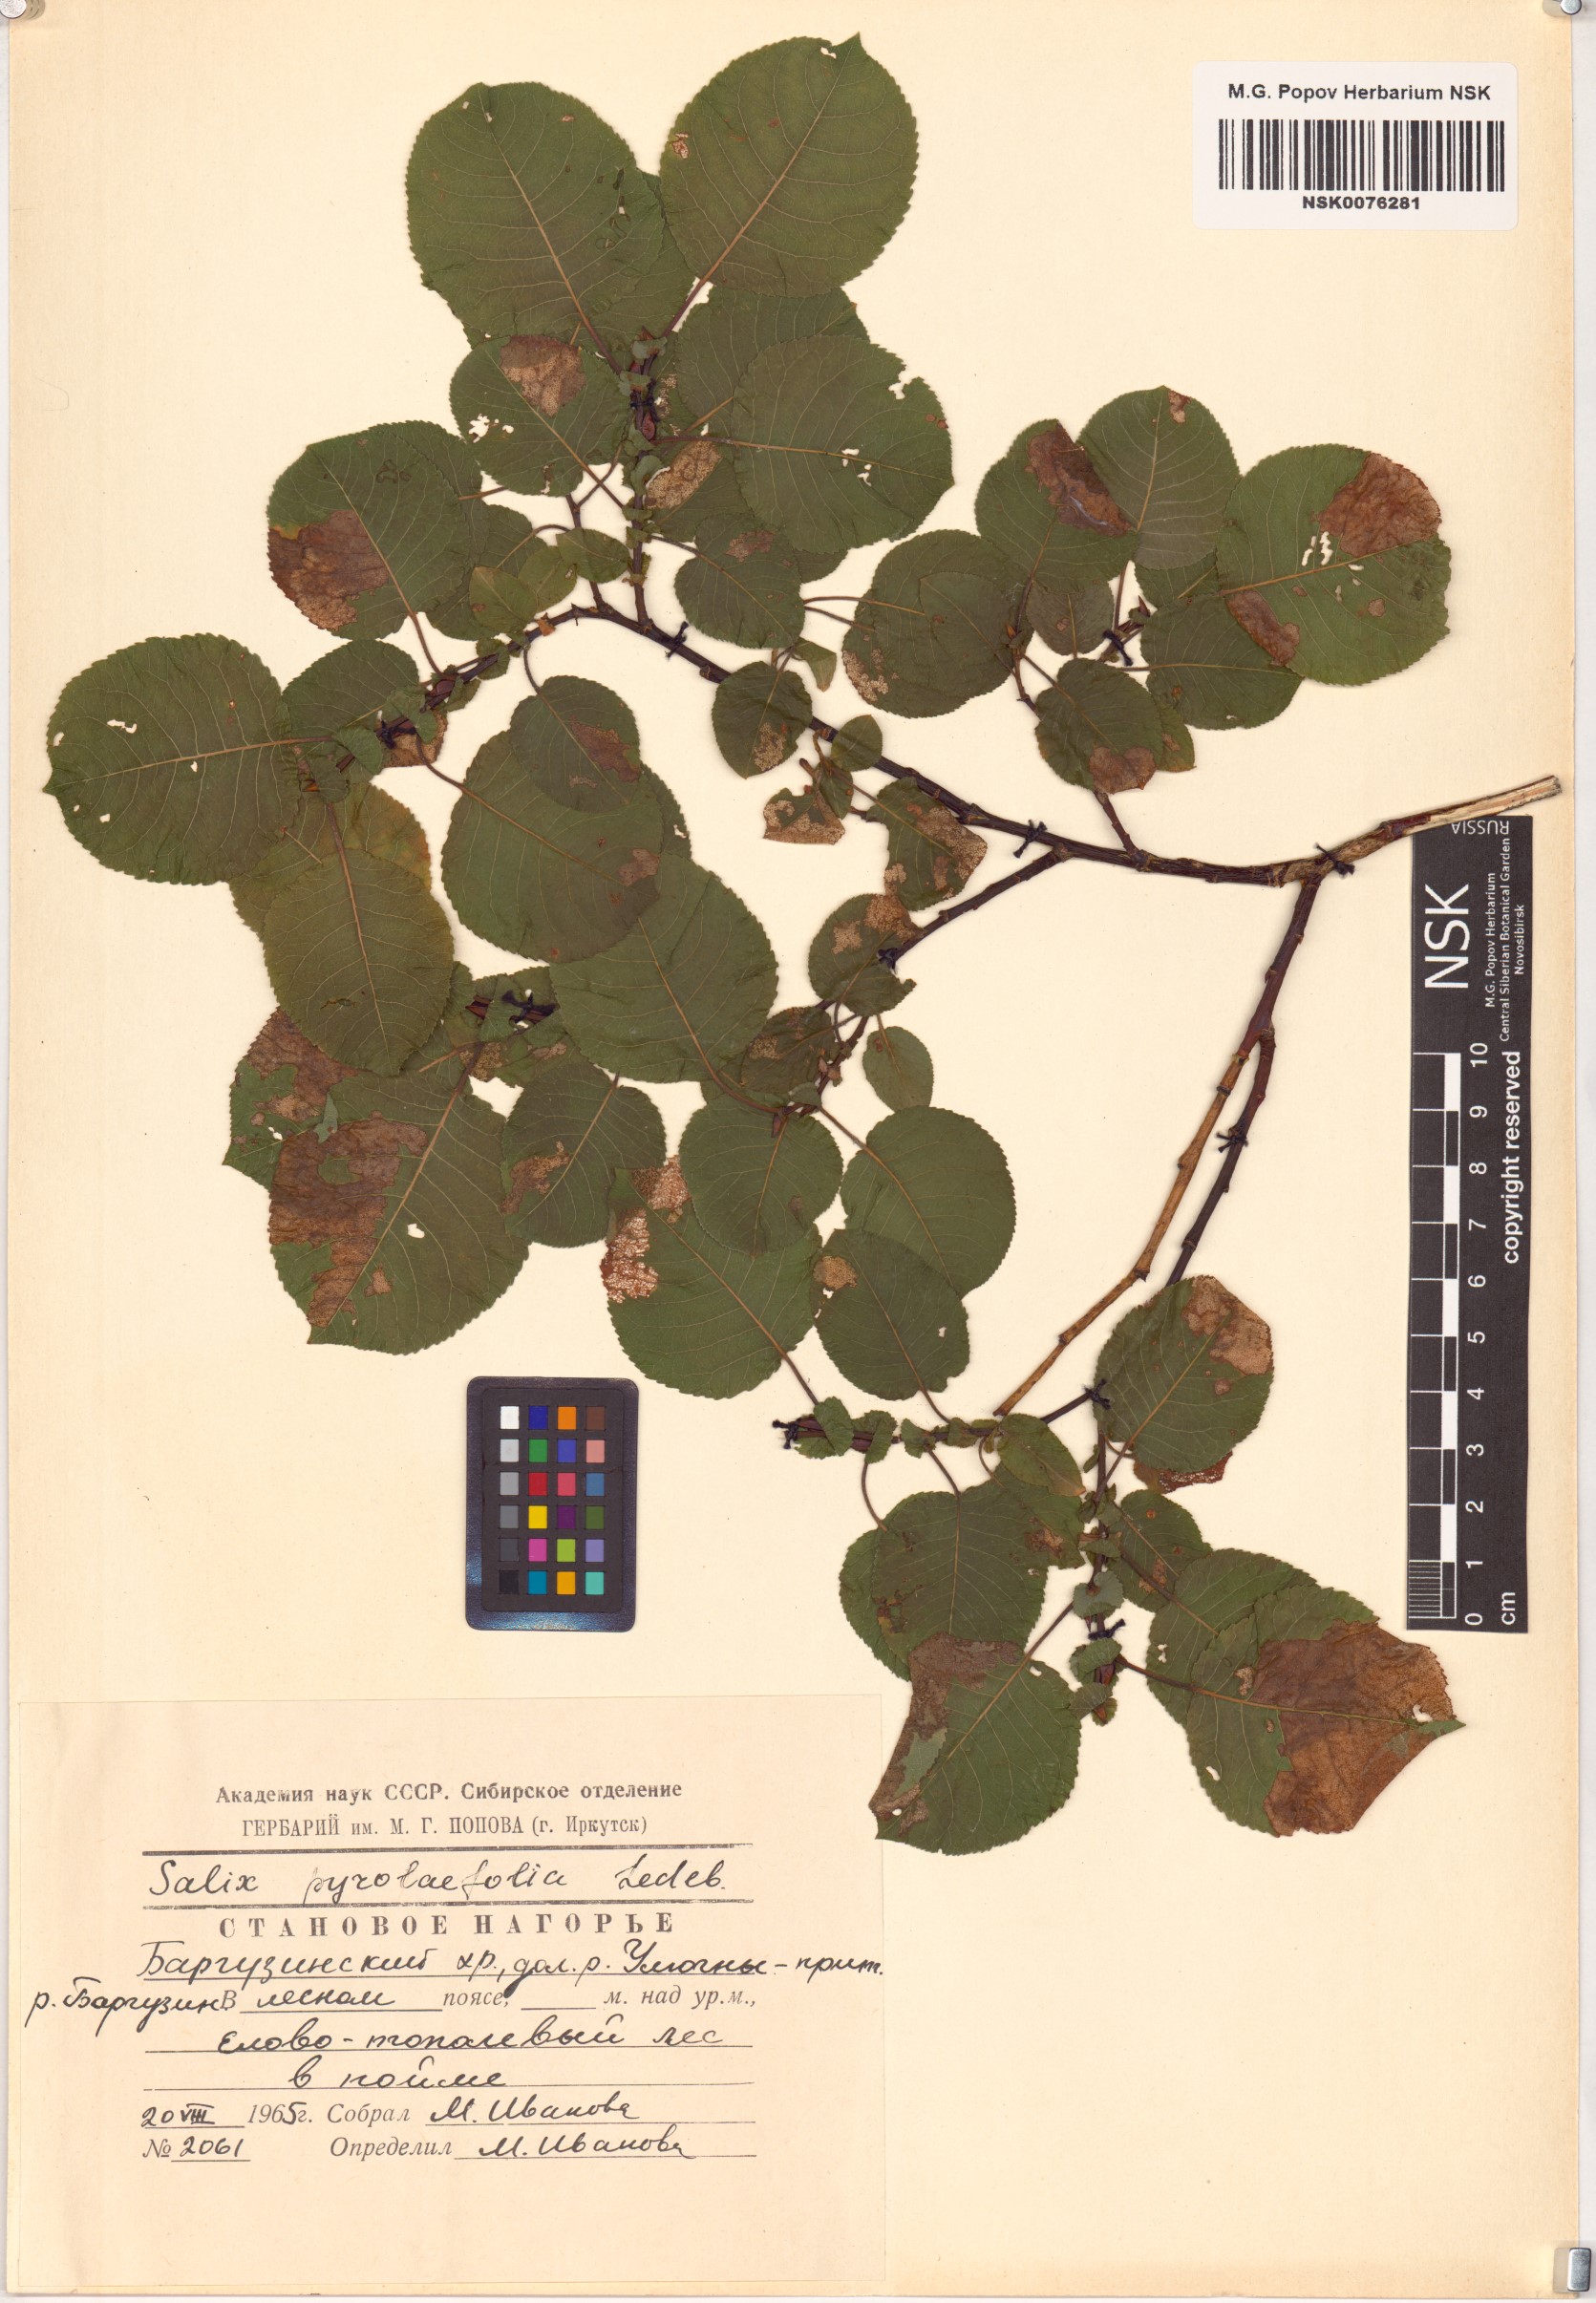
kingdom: Plantae
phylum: Tracheophyta
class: Magnoliopsida
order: Malpighiales
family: Salicaceae
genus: Salix
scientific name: Salix pyrolifolia
